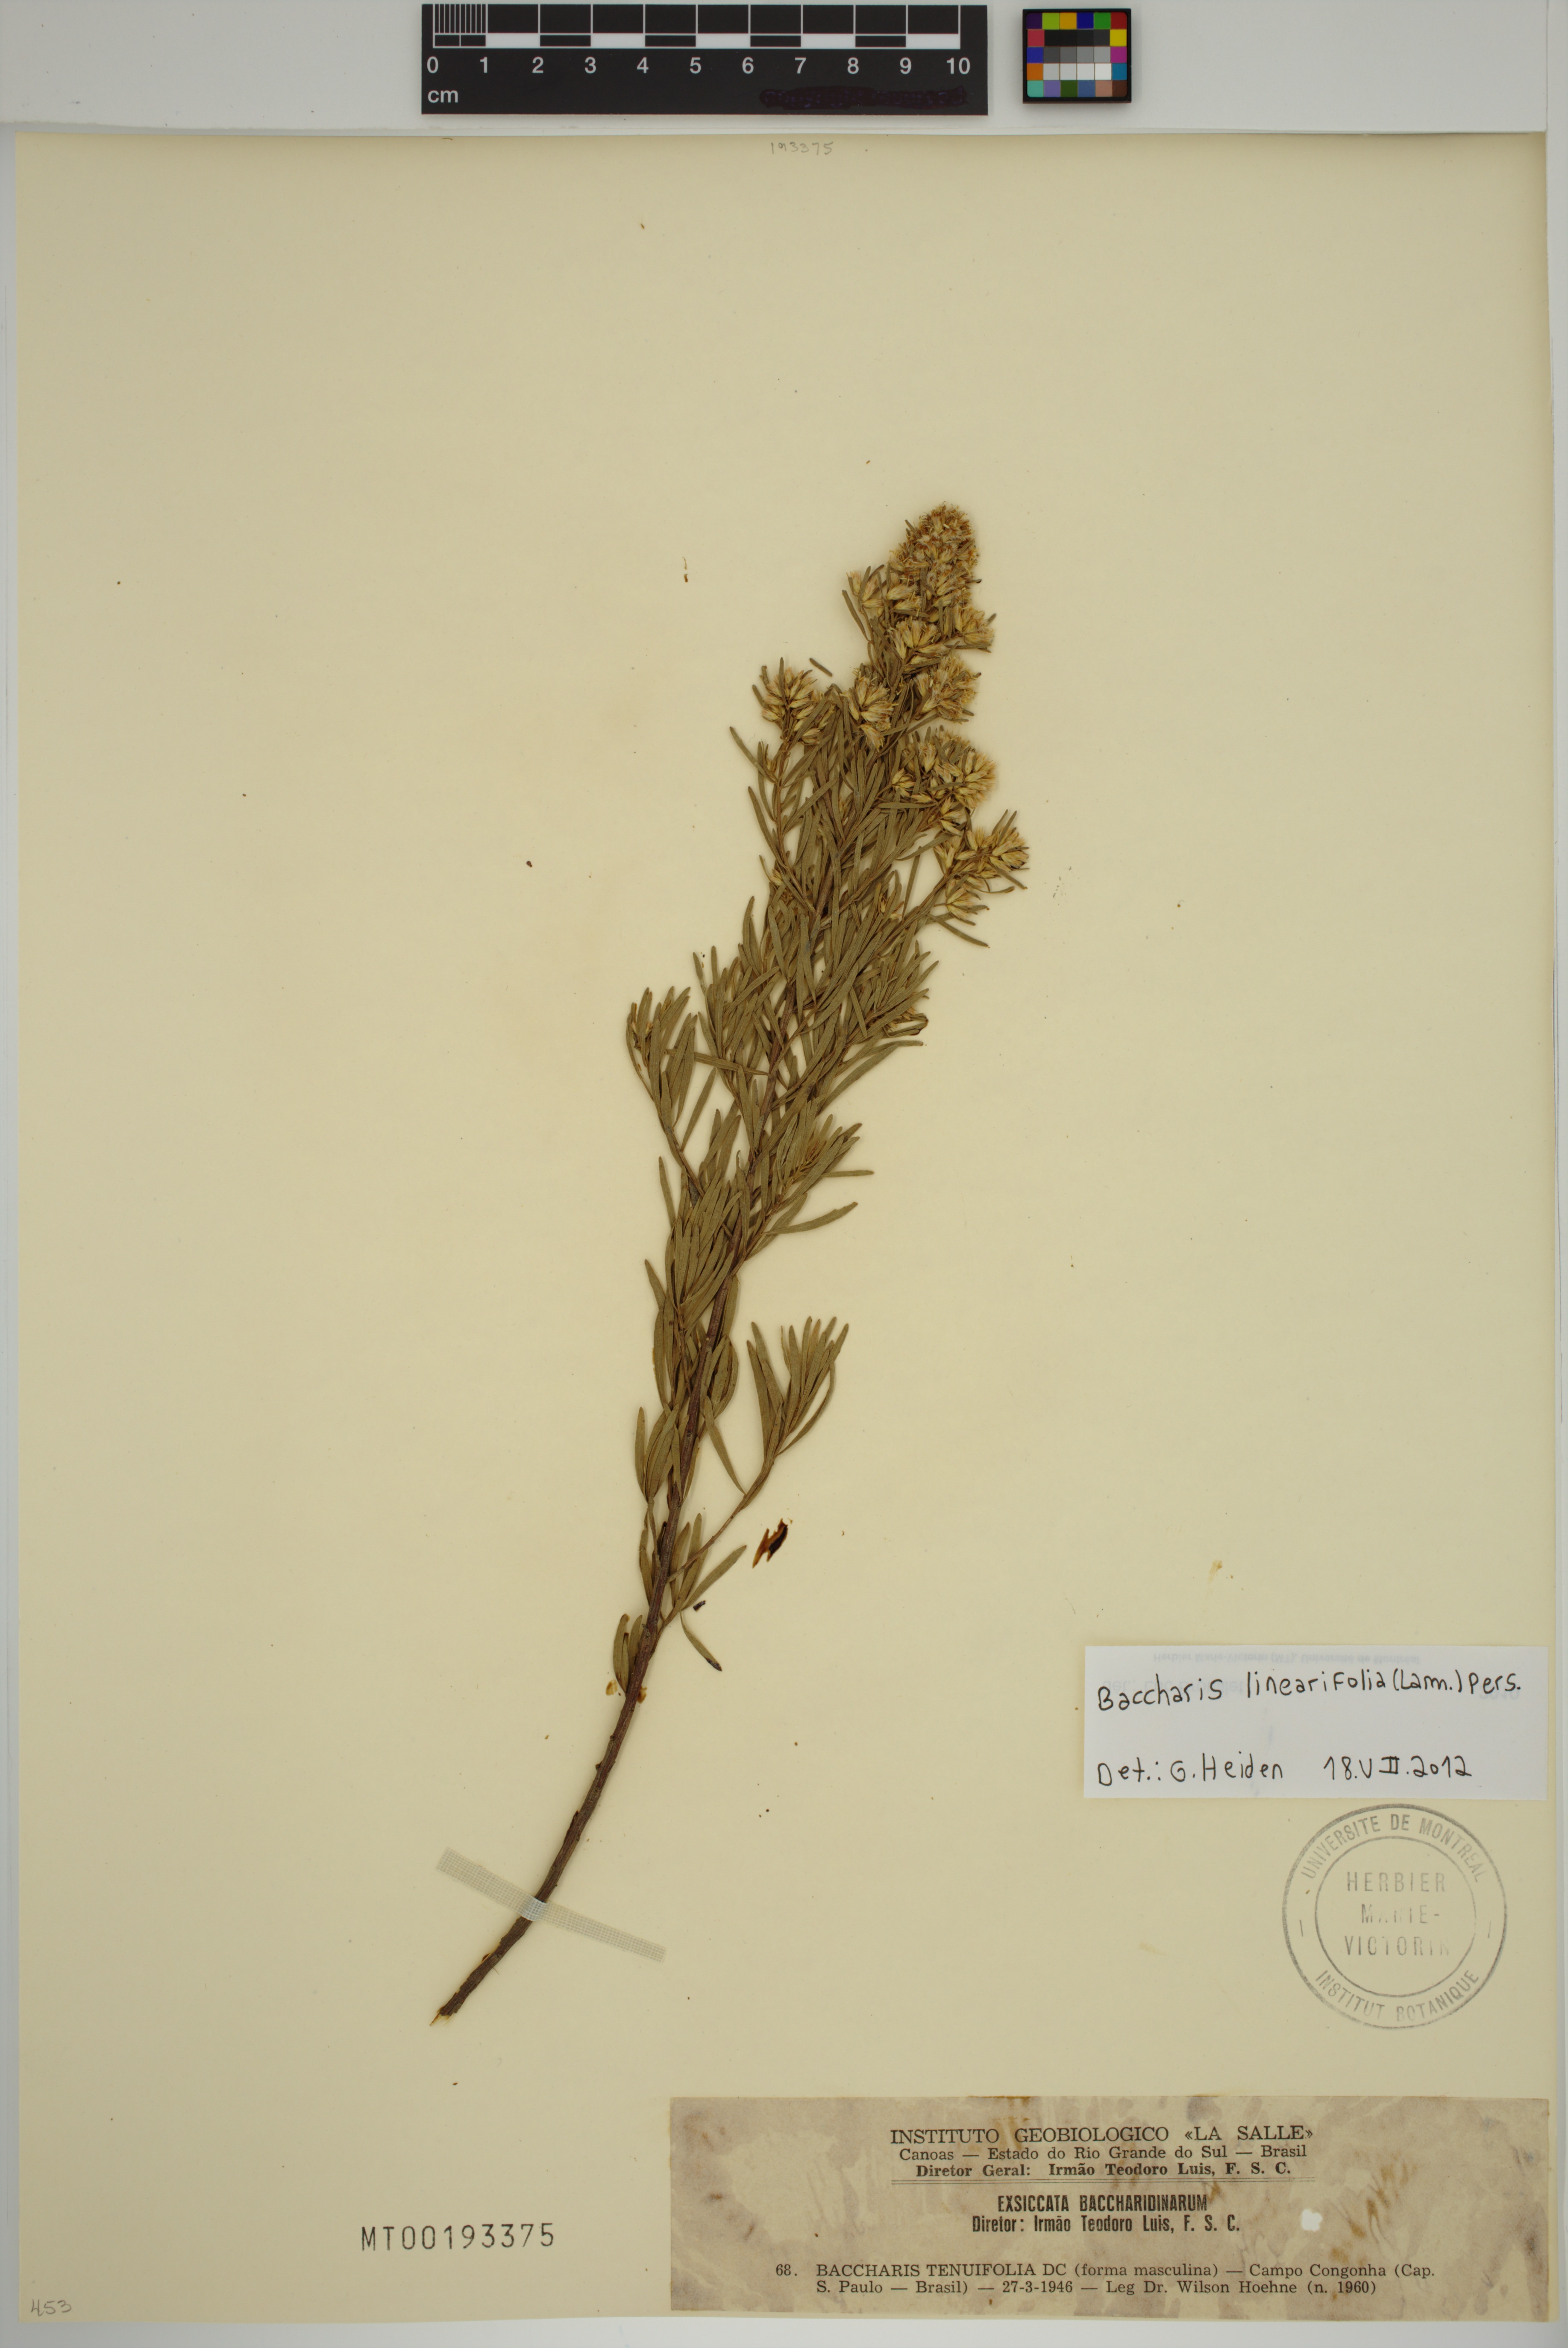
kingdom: Plantae
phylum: Tracheophyta
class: Magnoliopsida
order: Asterales
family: Asteraceae
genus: Baccharis
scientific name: Baccharis linearifolia
